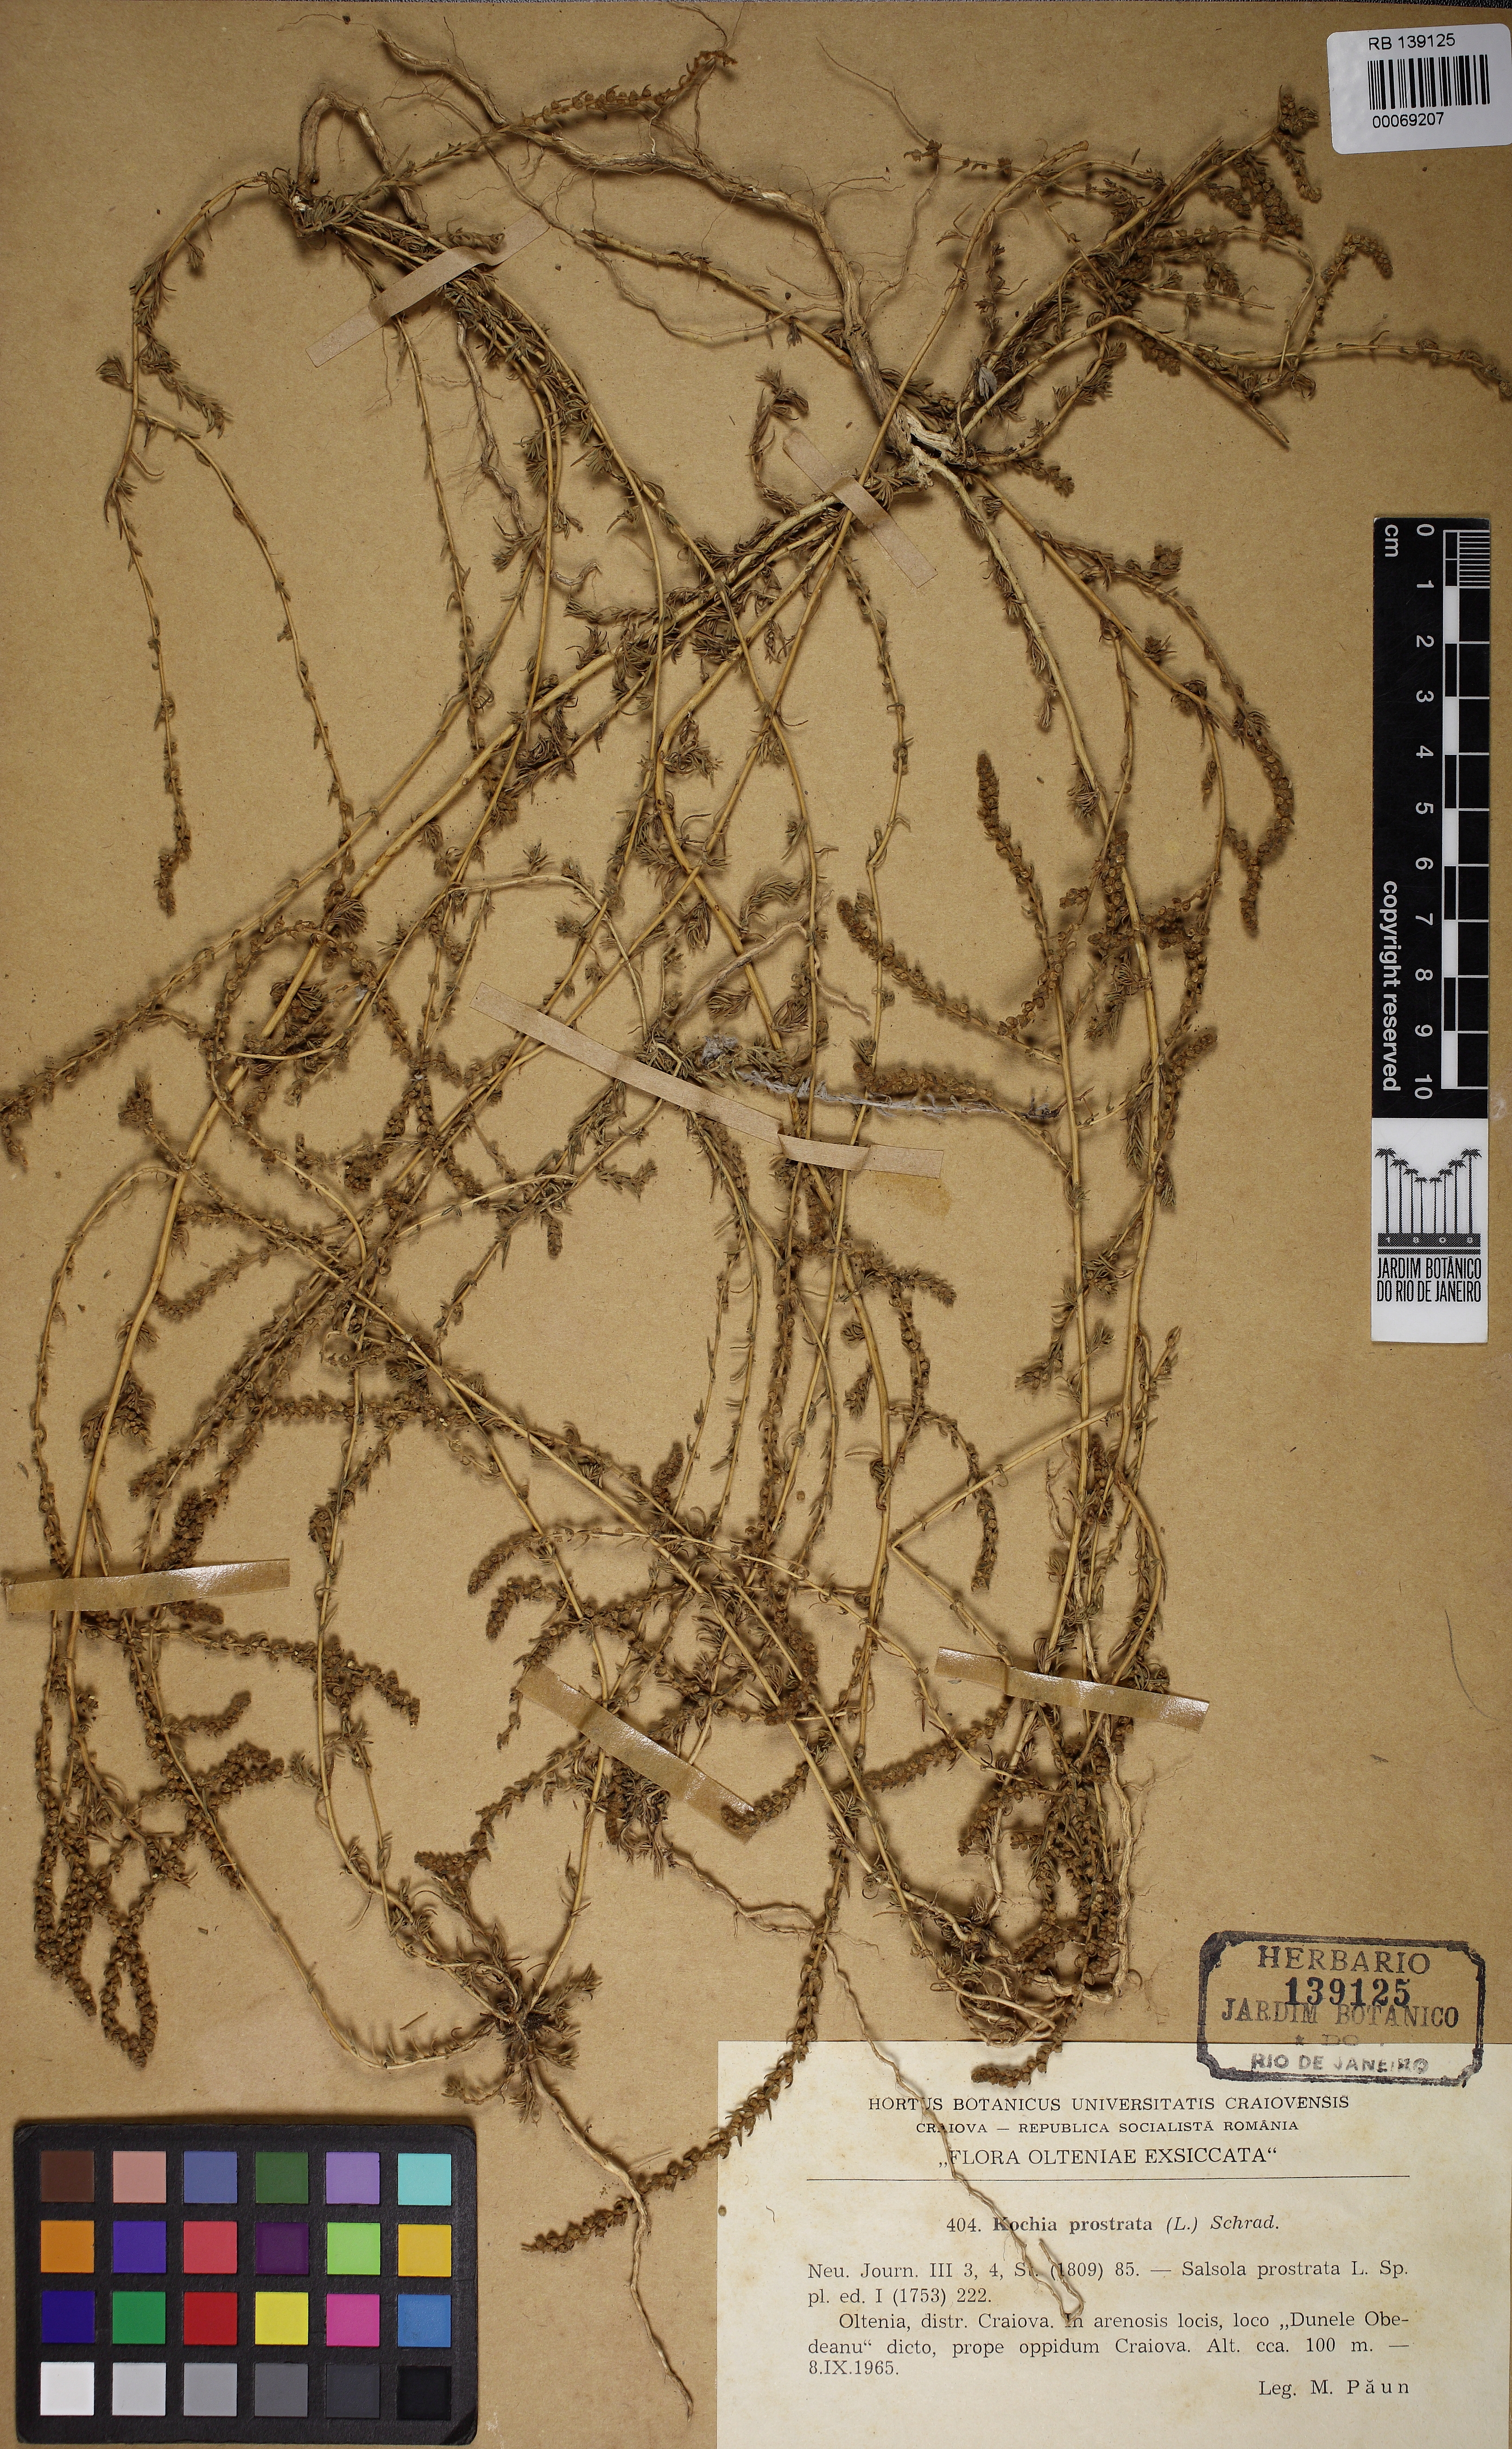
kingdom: Plantae
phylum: Tracheophyta
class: Magnoliopsida
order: Caryophyllales
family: Amaranthaceae
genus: Bassia
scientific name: Bassia prostrata
